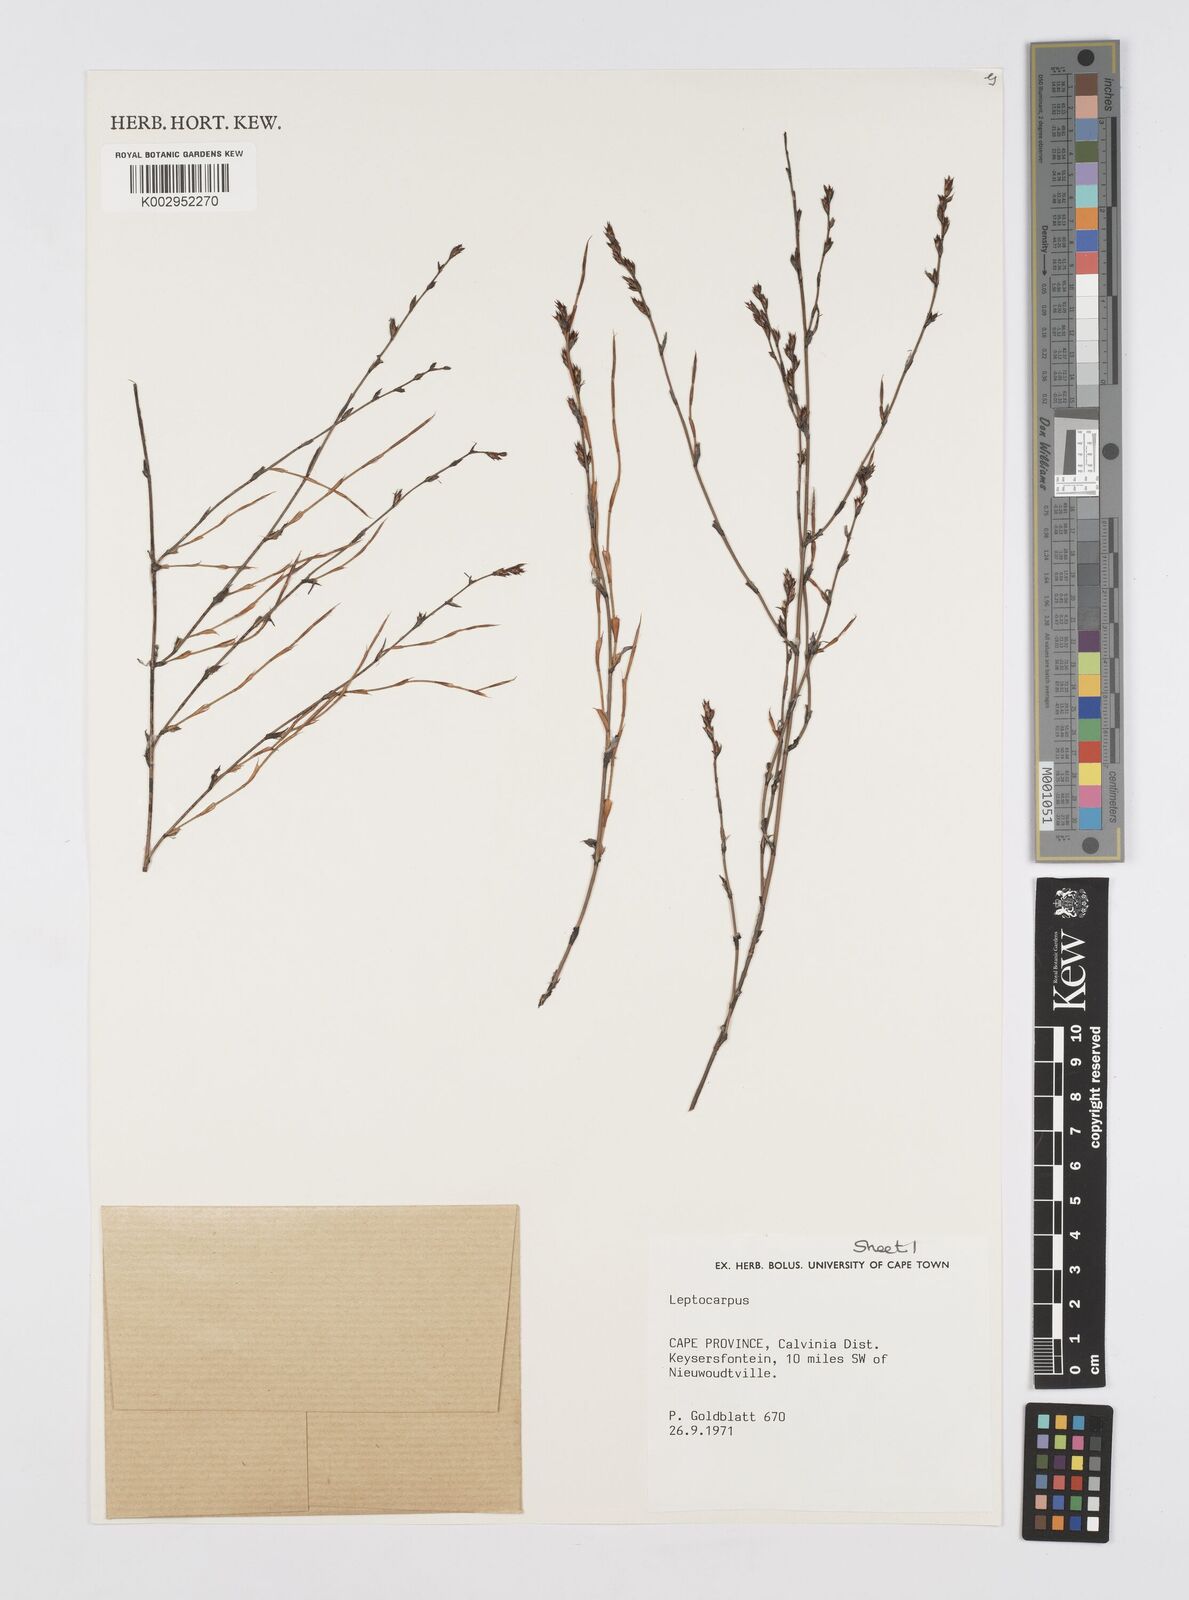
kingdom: Plantae
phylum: Tracheophyta
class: Liliopsida
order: Poales
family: Restionaceae
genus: Restio
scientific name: Restio
